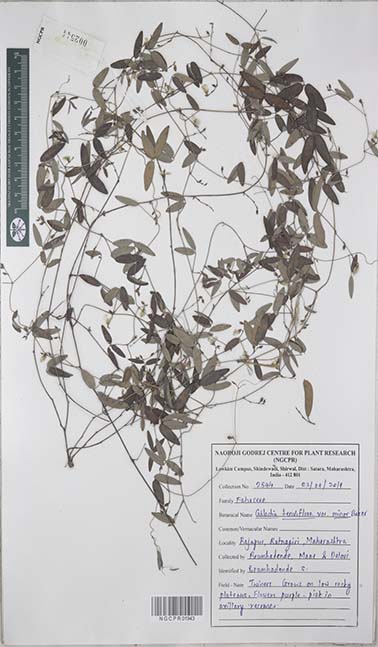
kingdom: Plantae
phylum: Tracheophyta
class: Magnoliopsida
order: Fabales
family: Fabaceae
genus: Galactia
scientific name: Galactia striata
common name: Florida hammock milkpea
